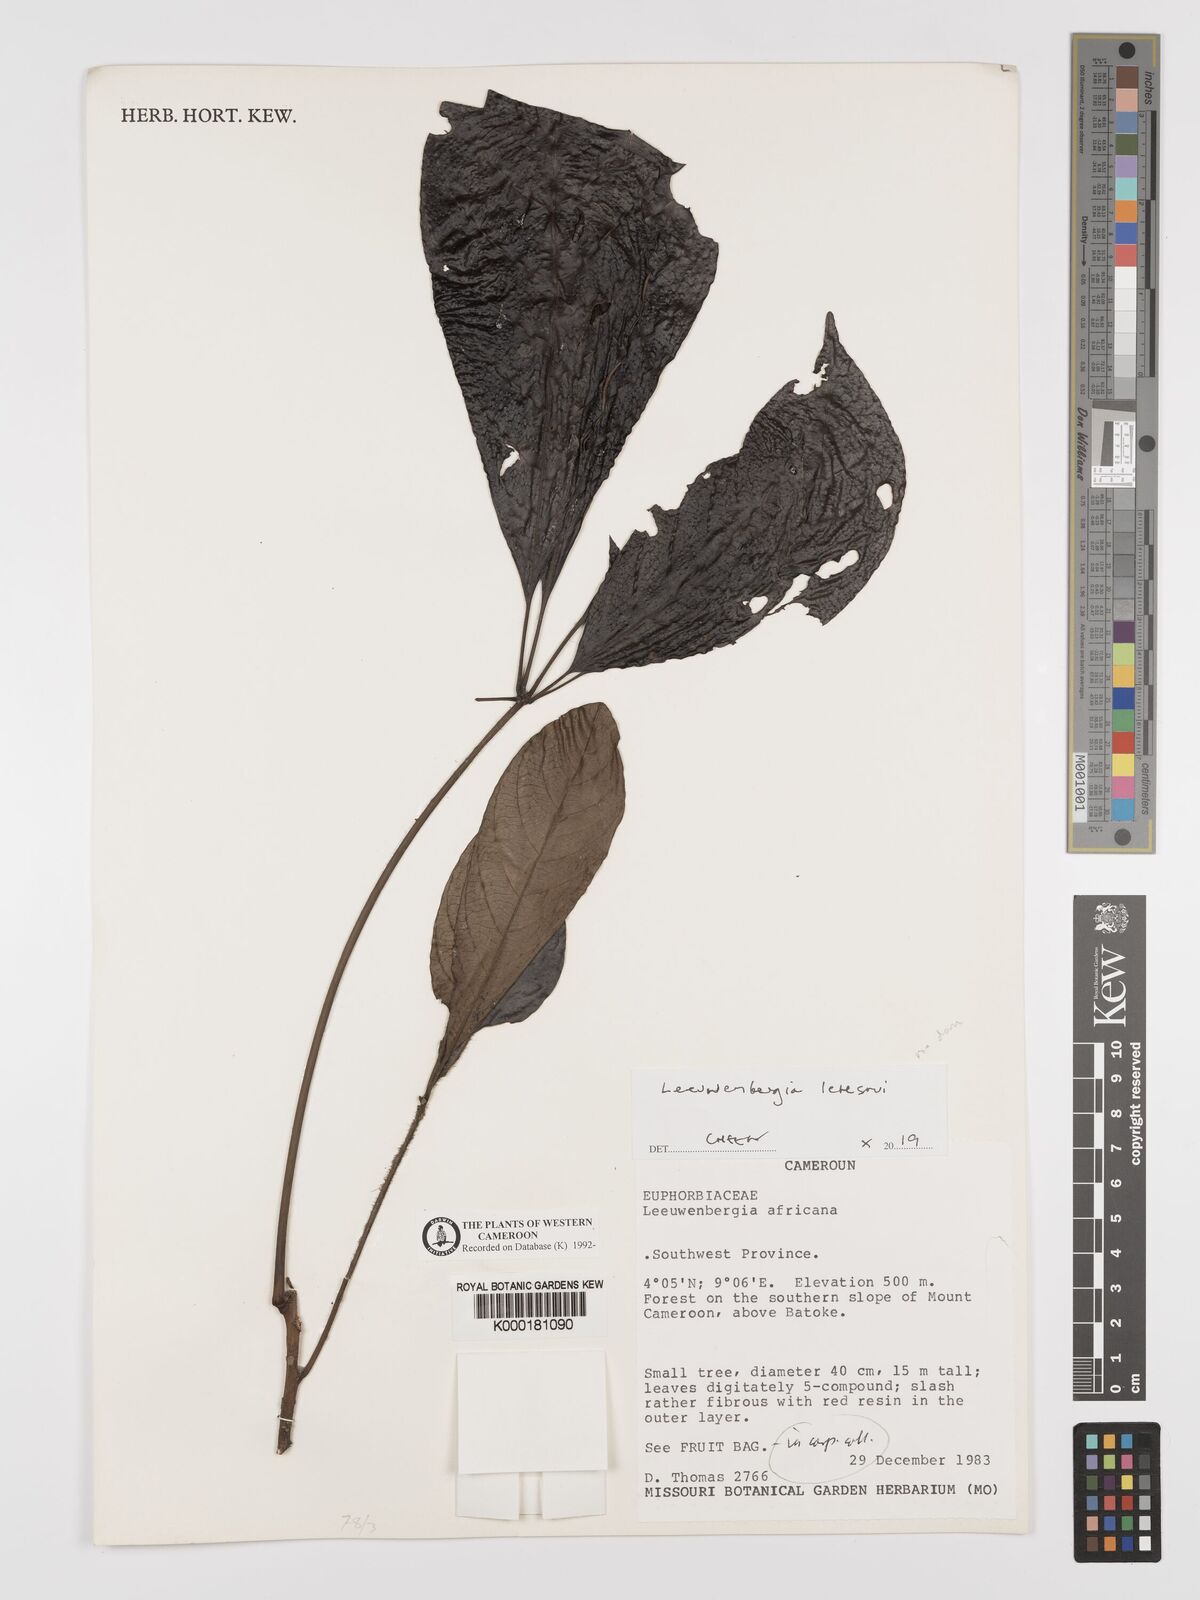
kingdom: Plantae
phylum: Tracheophyta
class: Magnoliopsida
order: Malpighiales
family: Euphorbiaceae
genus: Leeuwenbergia
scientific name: Leeuwenbergia
